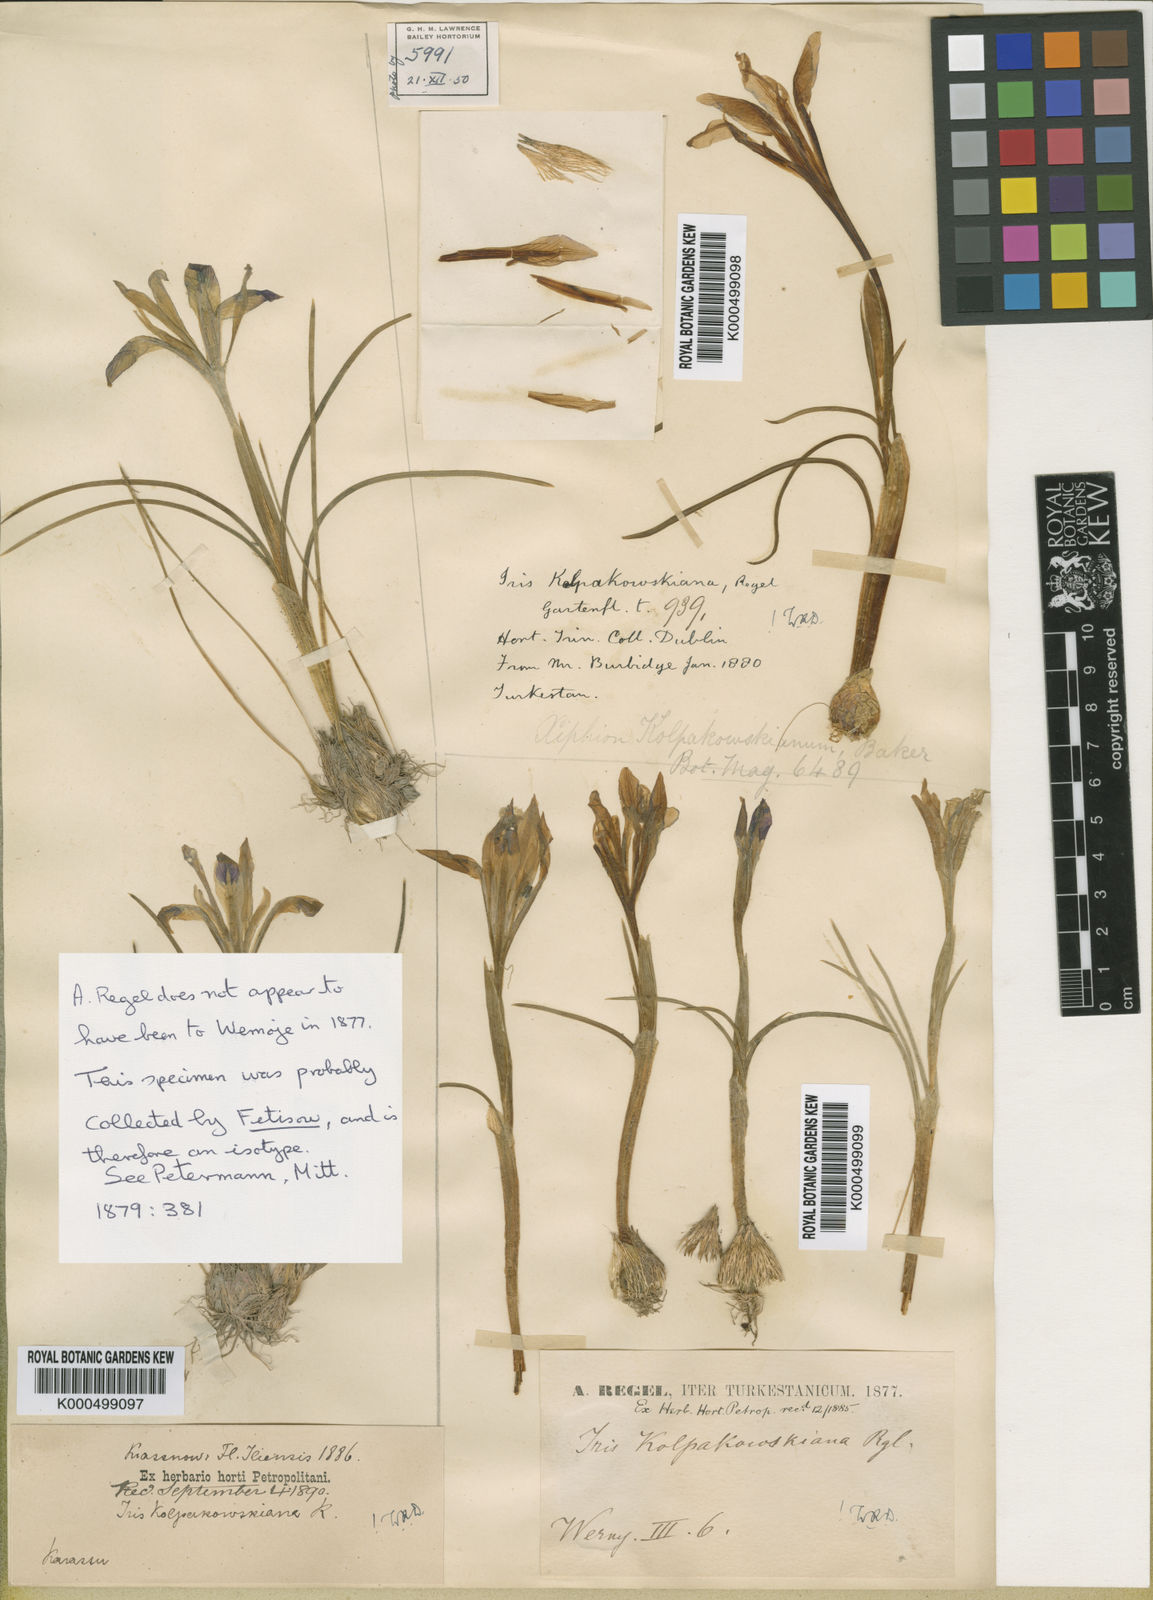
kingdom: Plantae
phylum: Tracheophyta
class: Liliopsida
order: Asparagales
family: Iridaceae
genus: Iris
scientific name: Iris kolpakowskiana
